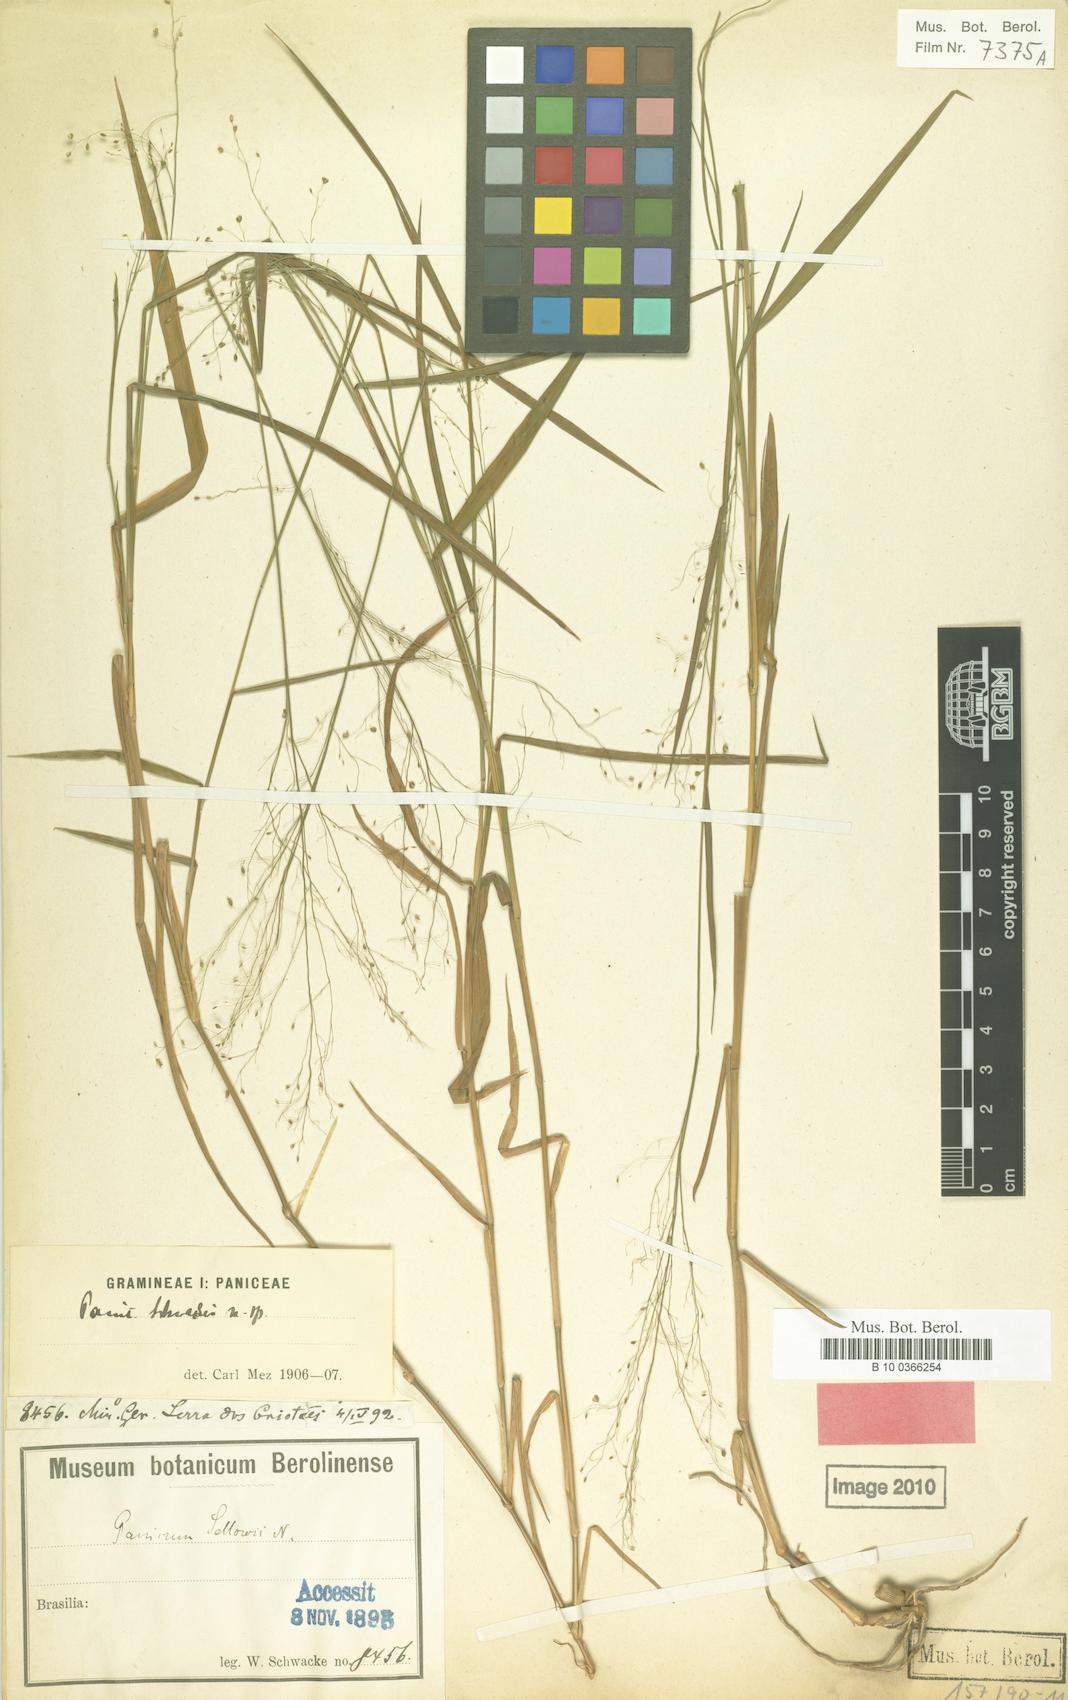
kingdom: Plantae
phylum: Tracheophyta
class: Liliopsida
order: Poales
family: Poaceae
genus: Trichanthecium
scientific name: Trichanthecium schwackeanum
